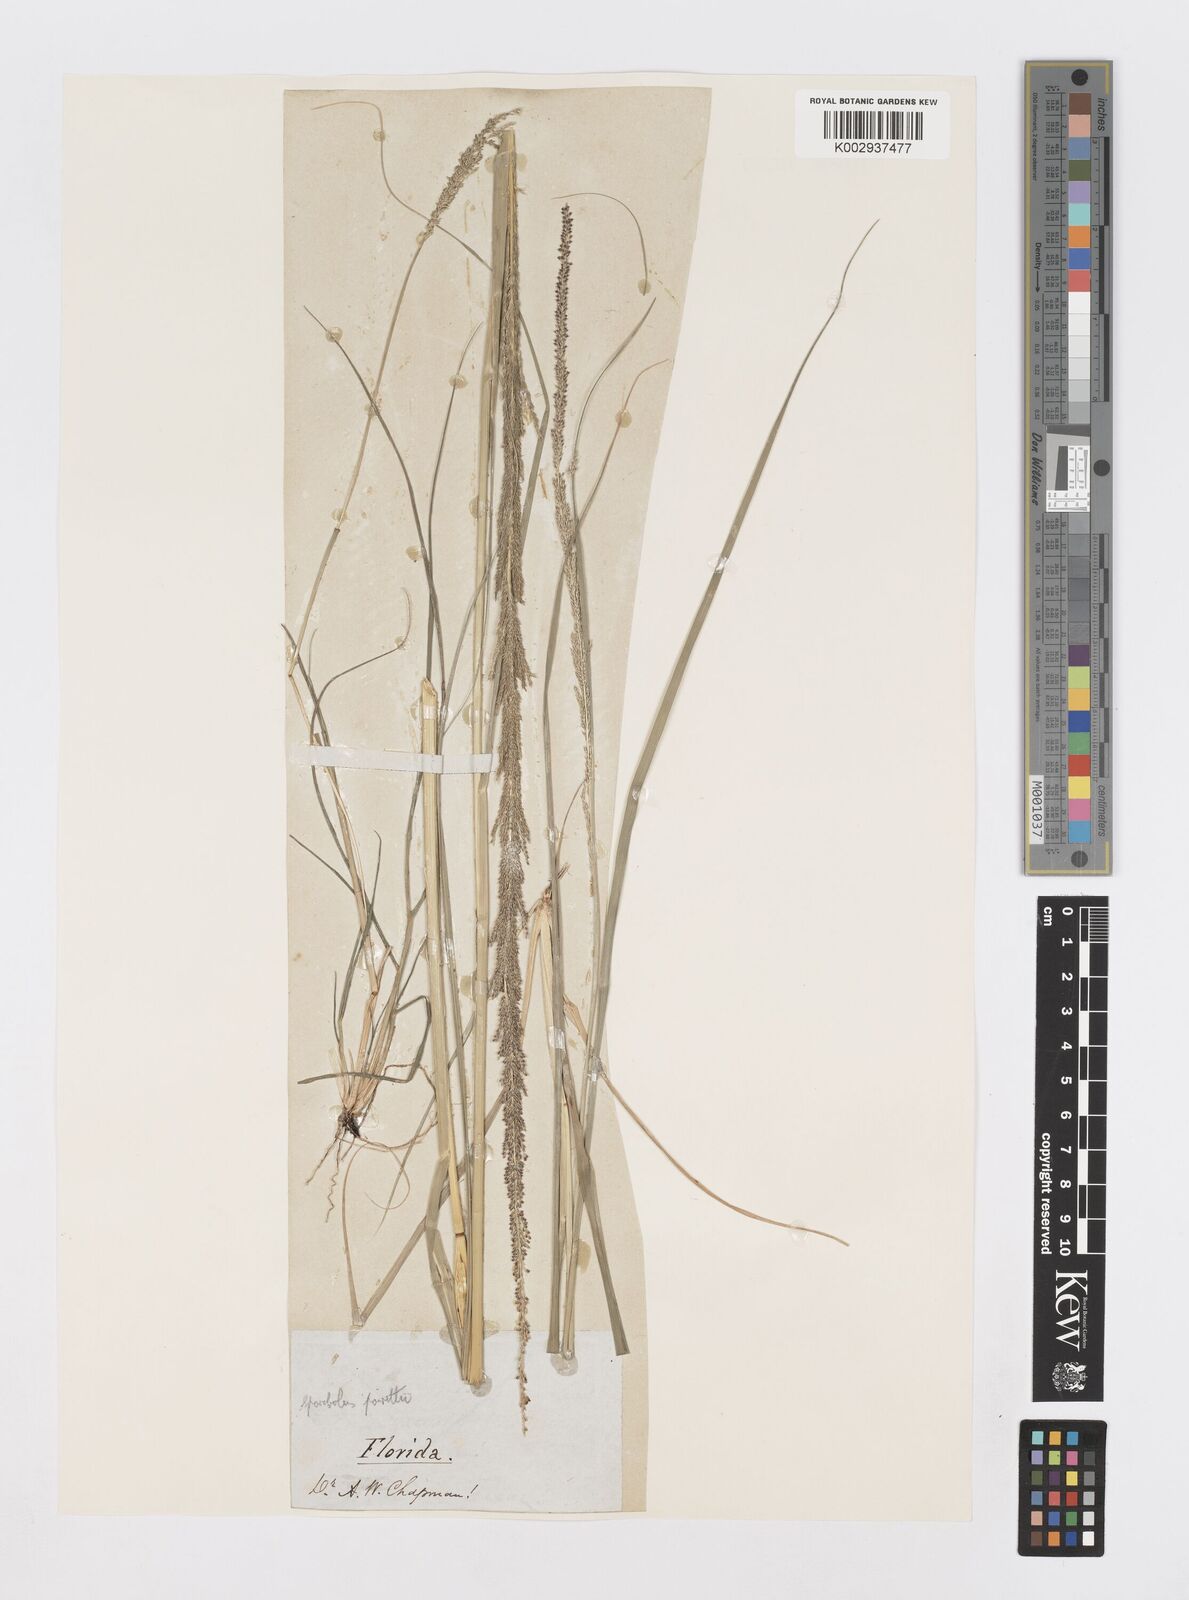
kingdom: Plantae
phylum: Tracheophyta
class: Liliopsida
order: Poales
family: Poaceae
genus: Sporobolus
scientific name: Sporobolus junceus
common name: Lizard grass
